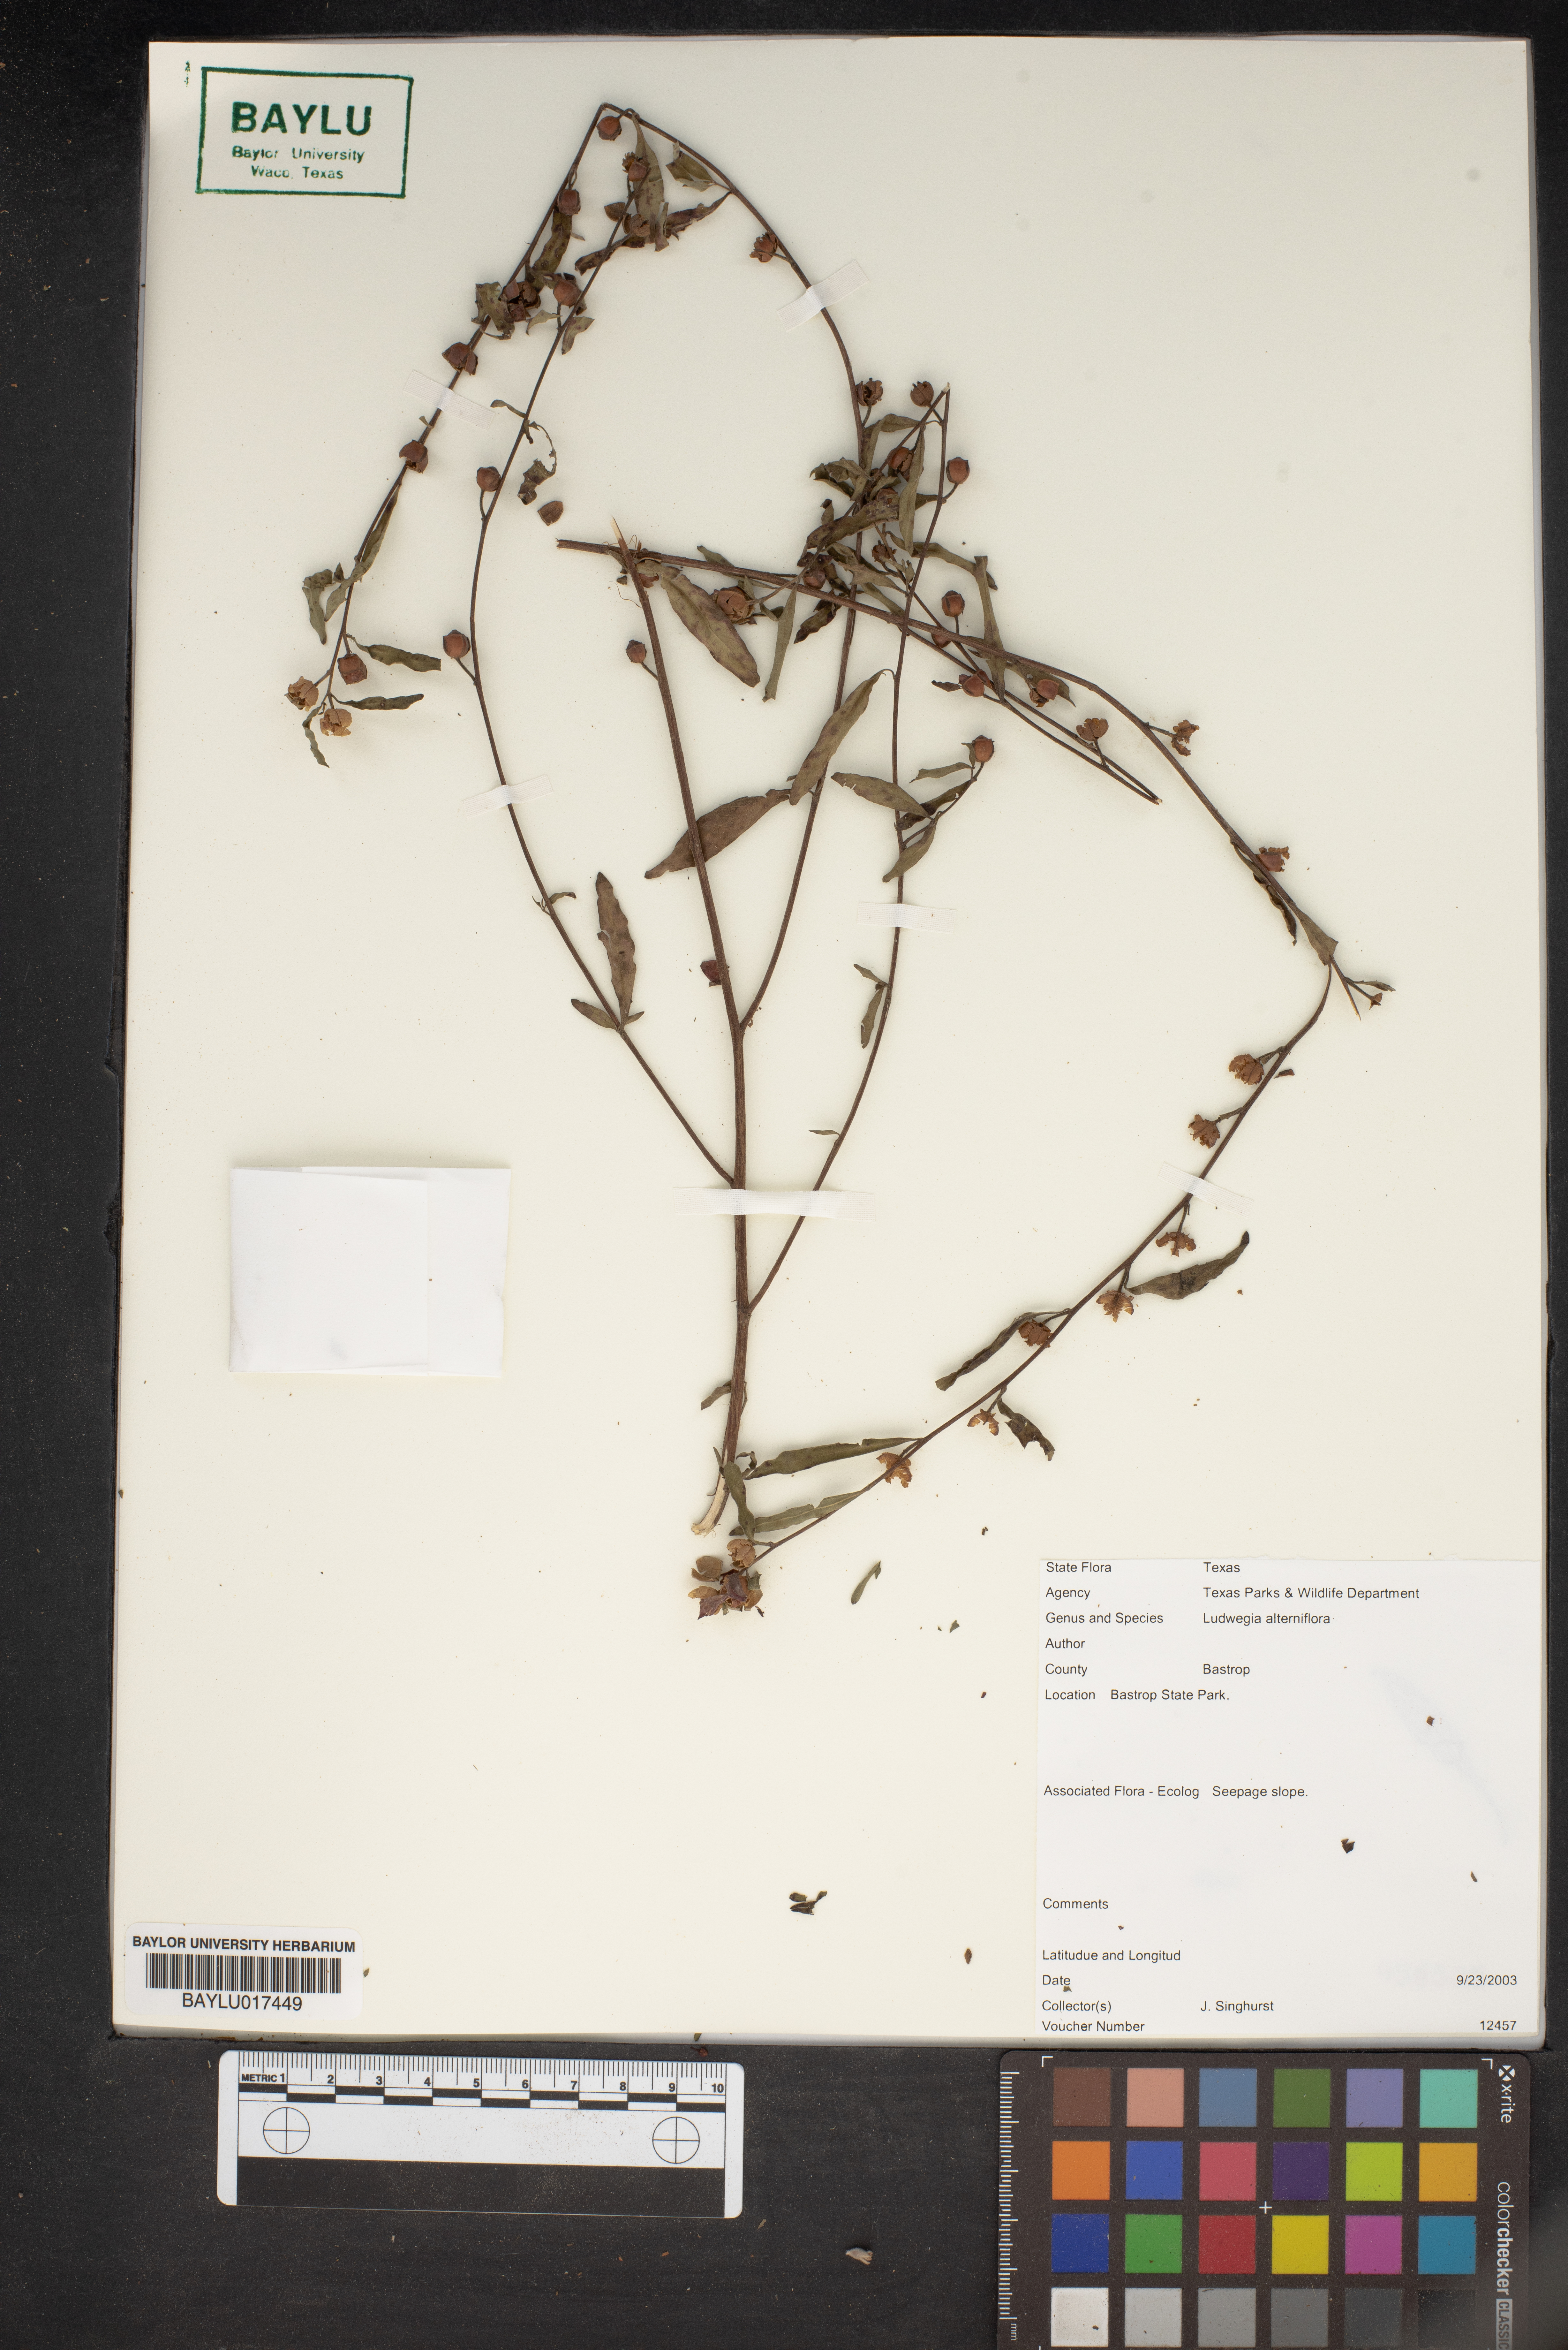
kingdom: Plantae
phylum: Tracheophyta
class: Magnoliopsida
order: Myrtales
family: Onagraceae
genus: Ludwigia
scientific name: Ludwigia alternifolia
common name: Rattlebox
